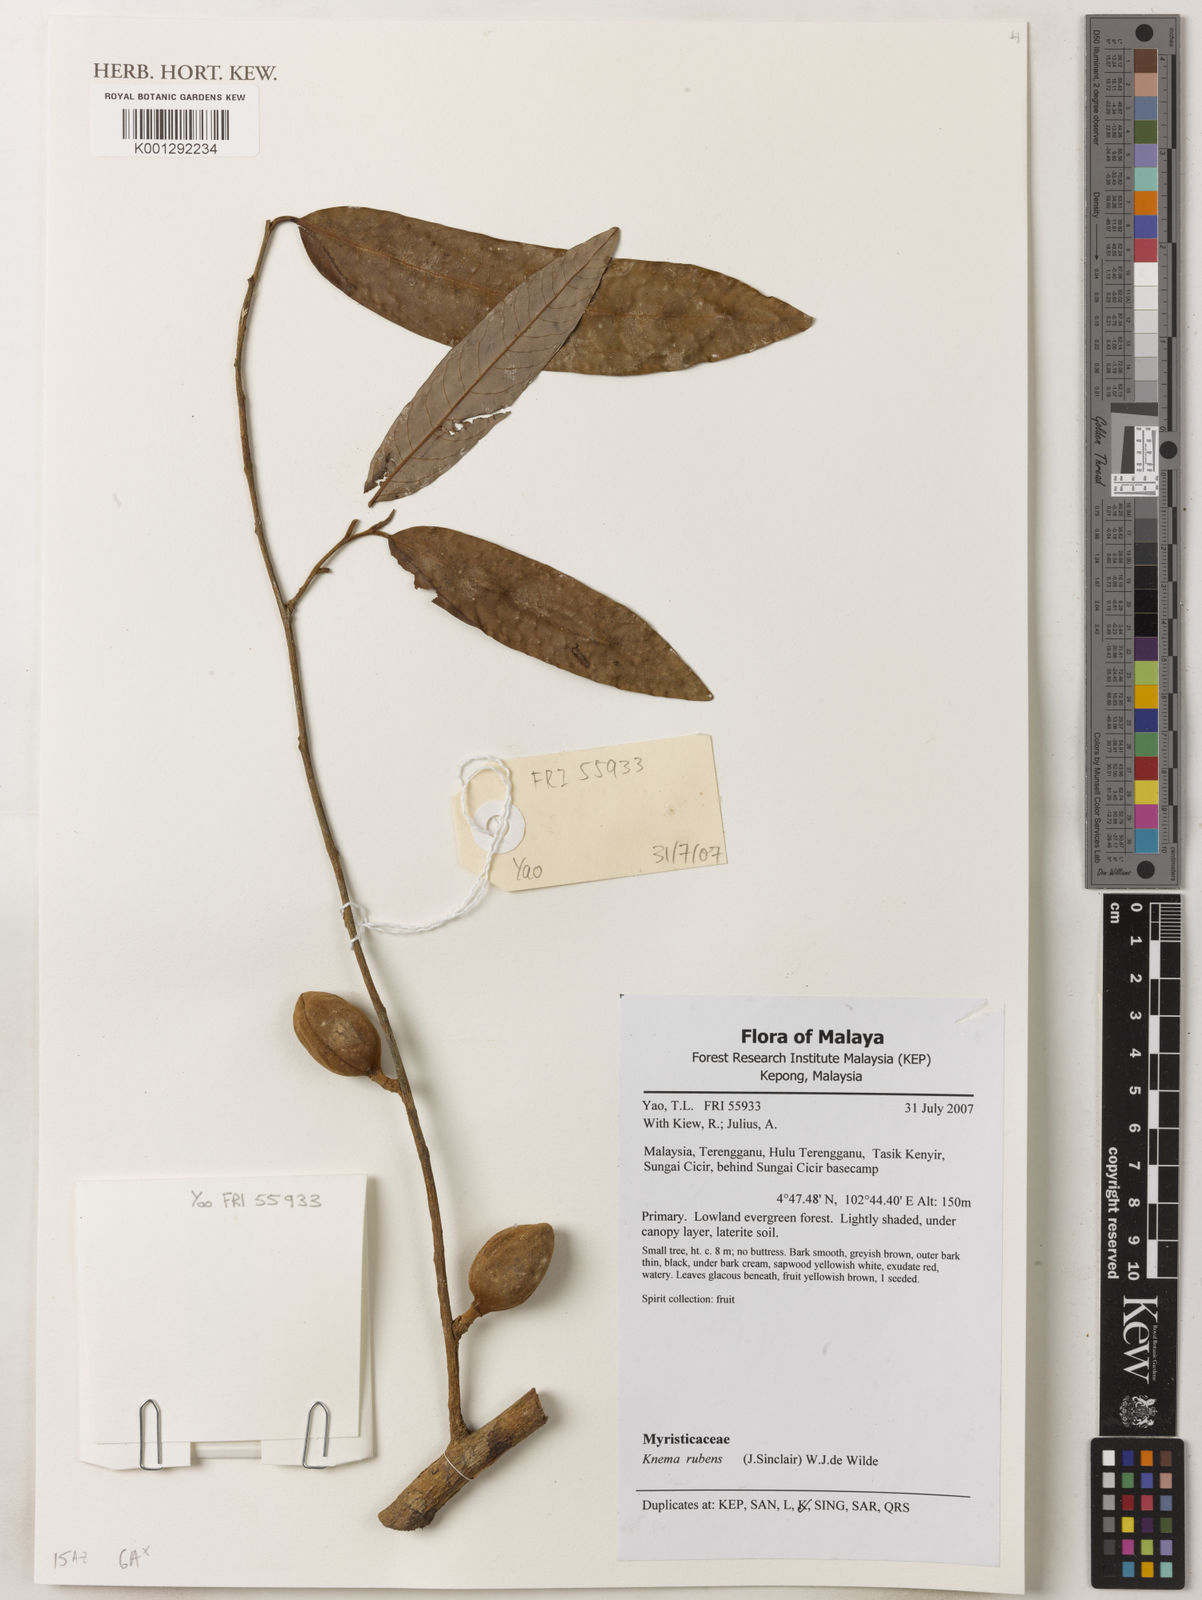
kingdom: Plantae
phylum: Tracheophyta
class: Magnoliopsida
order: Magnoliales
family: Myristicaceae
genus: Knema
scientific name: Knema rubens
